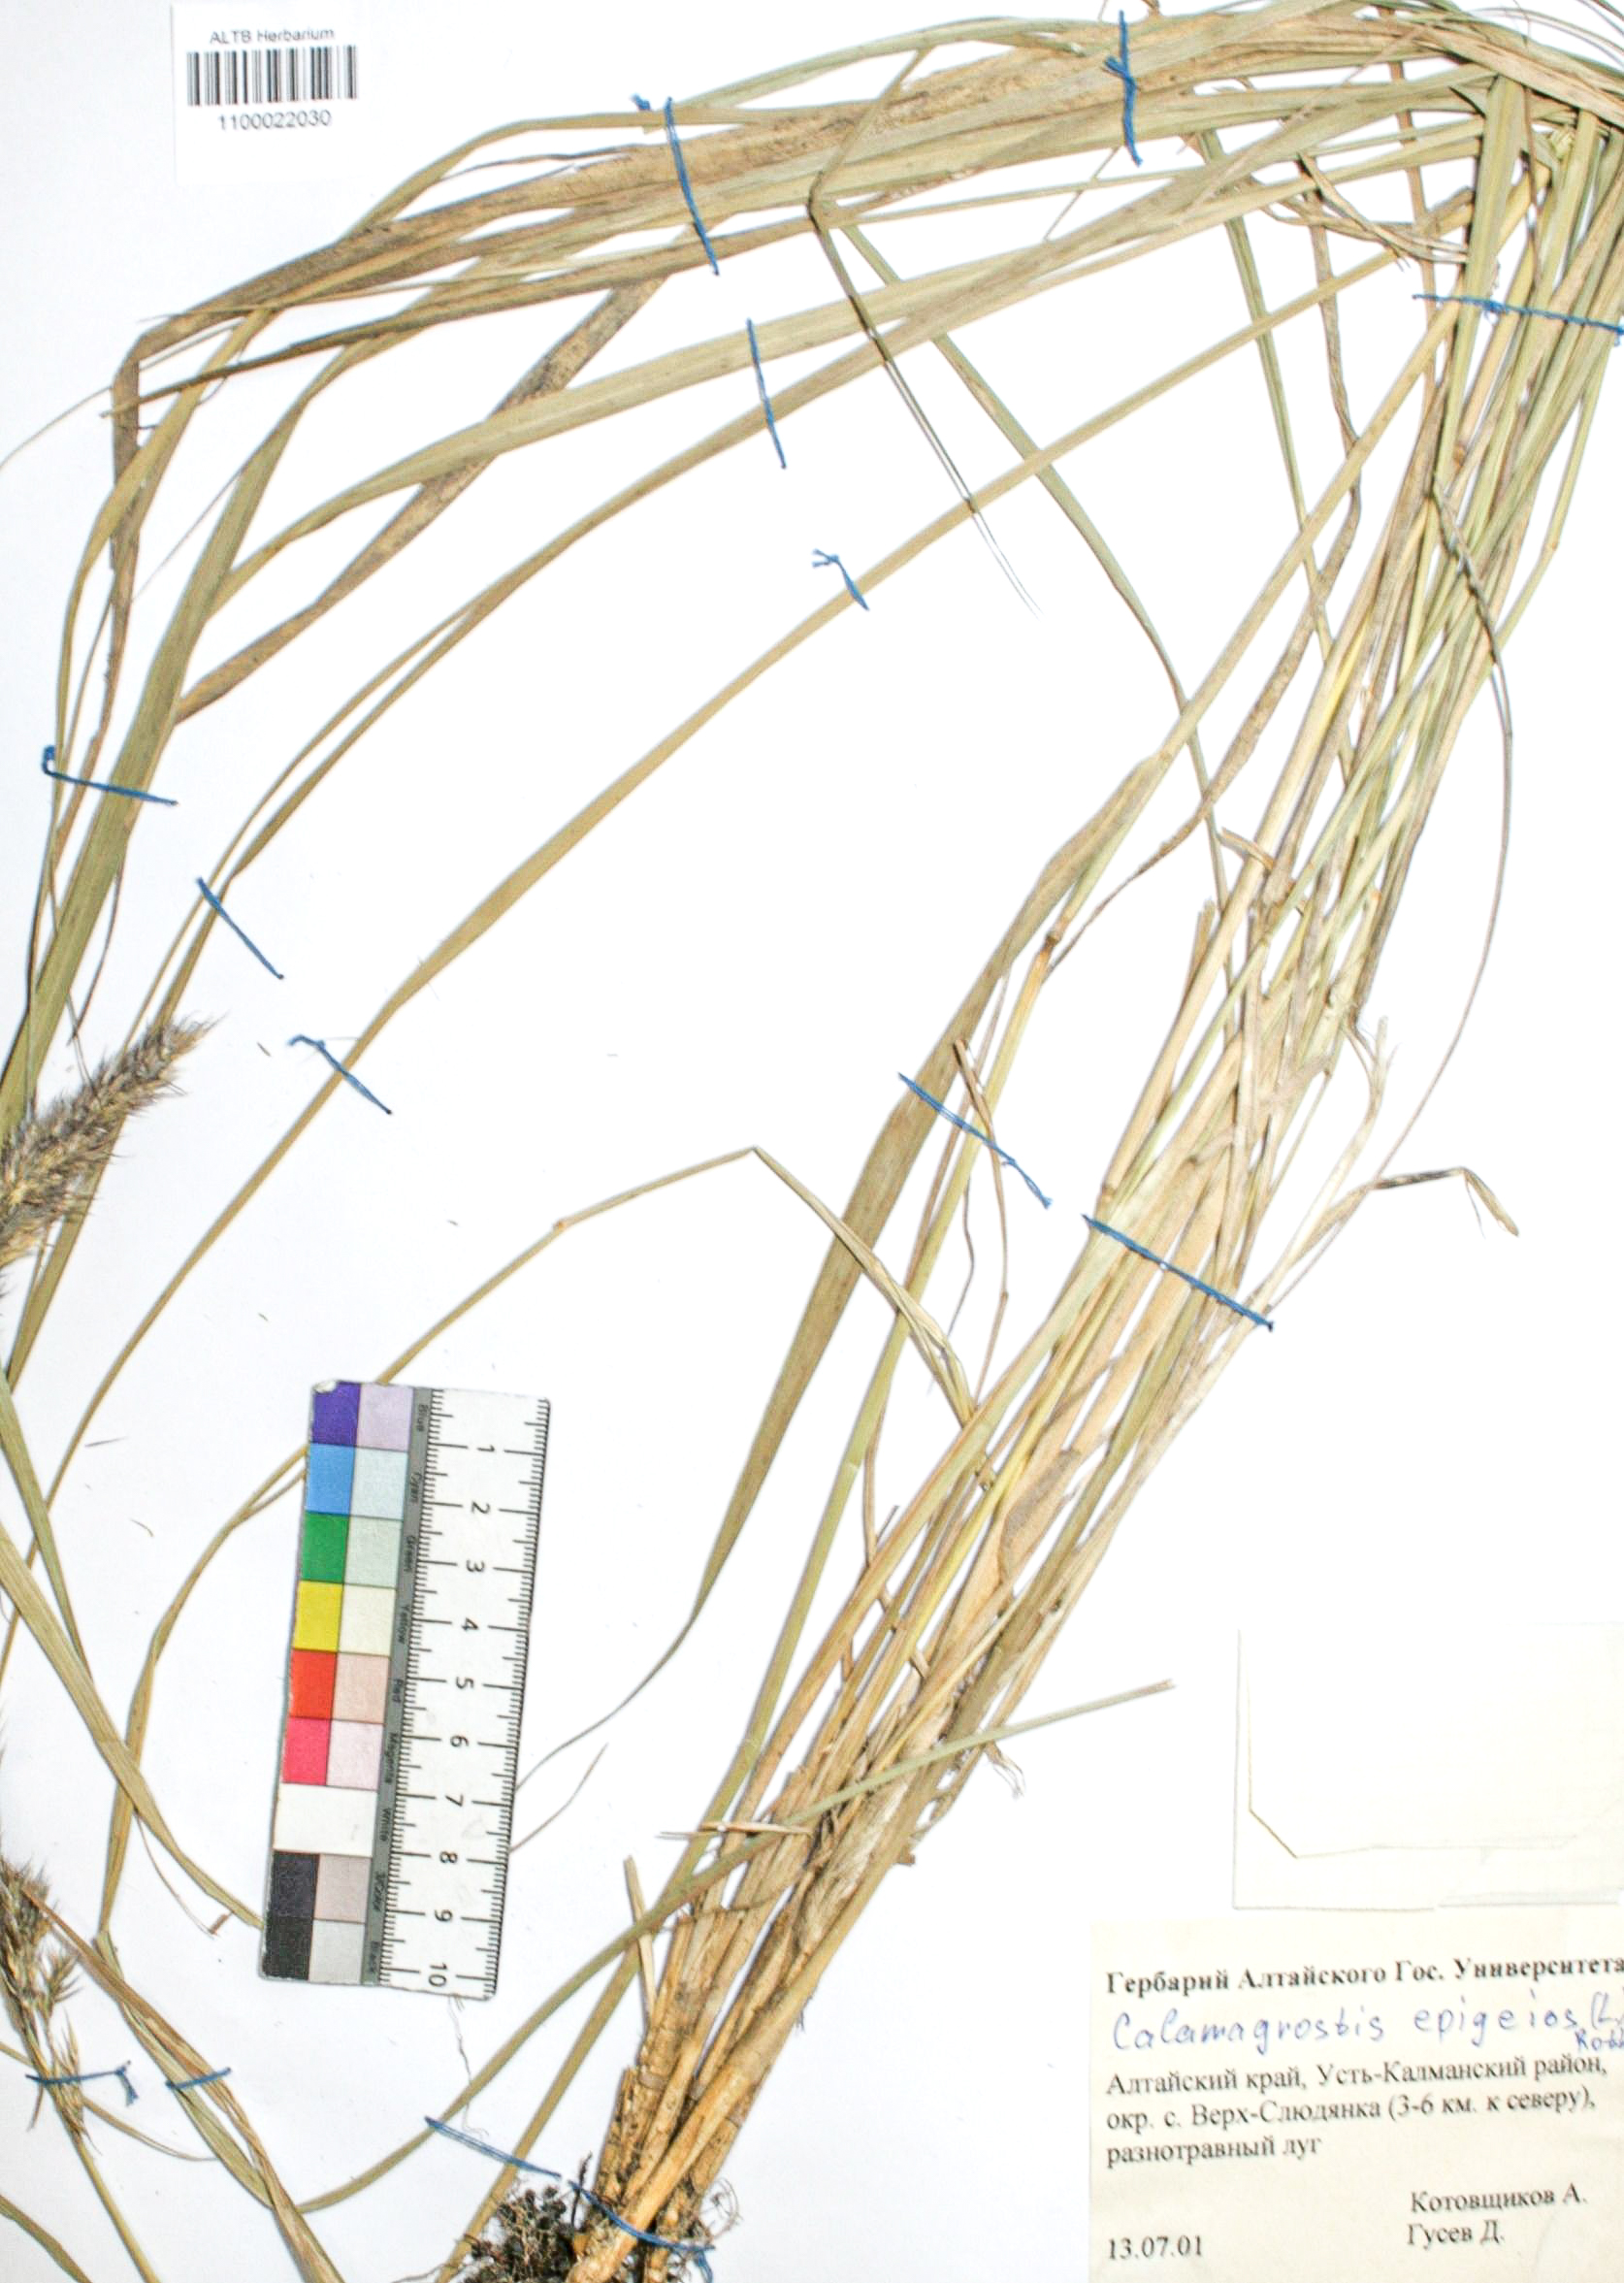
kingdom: Plantae
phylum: Tracheophyta
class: Liliopsida
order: Poales
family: Poaceae
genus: Calamagrostis
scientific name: Calamagrostis macrolepis
